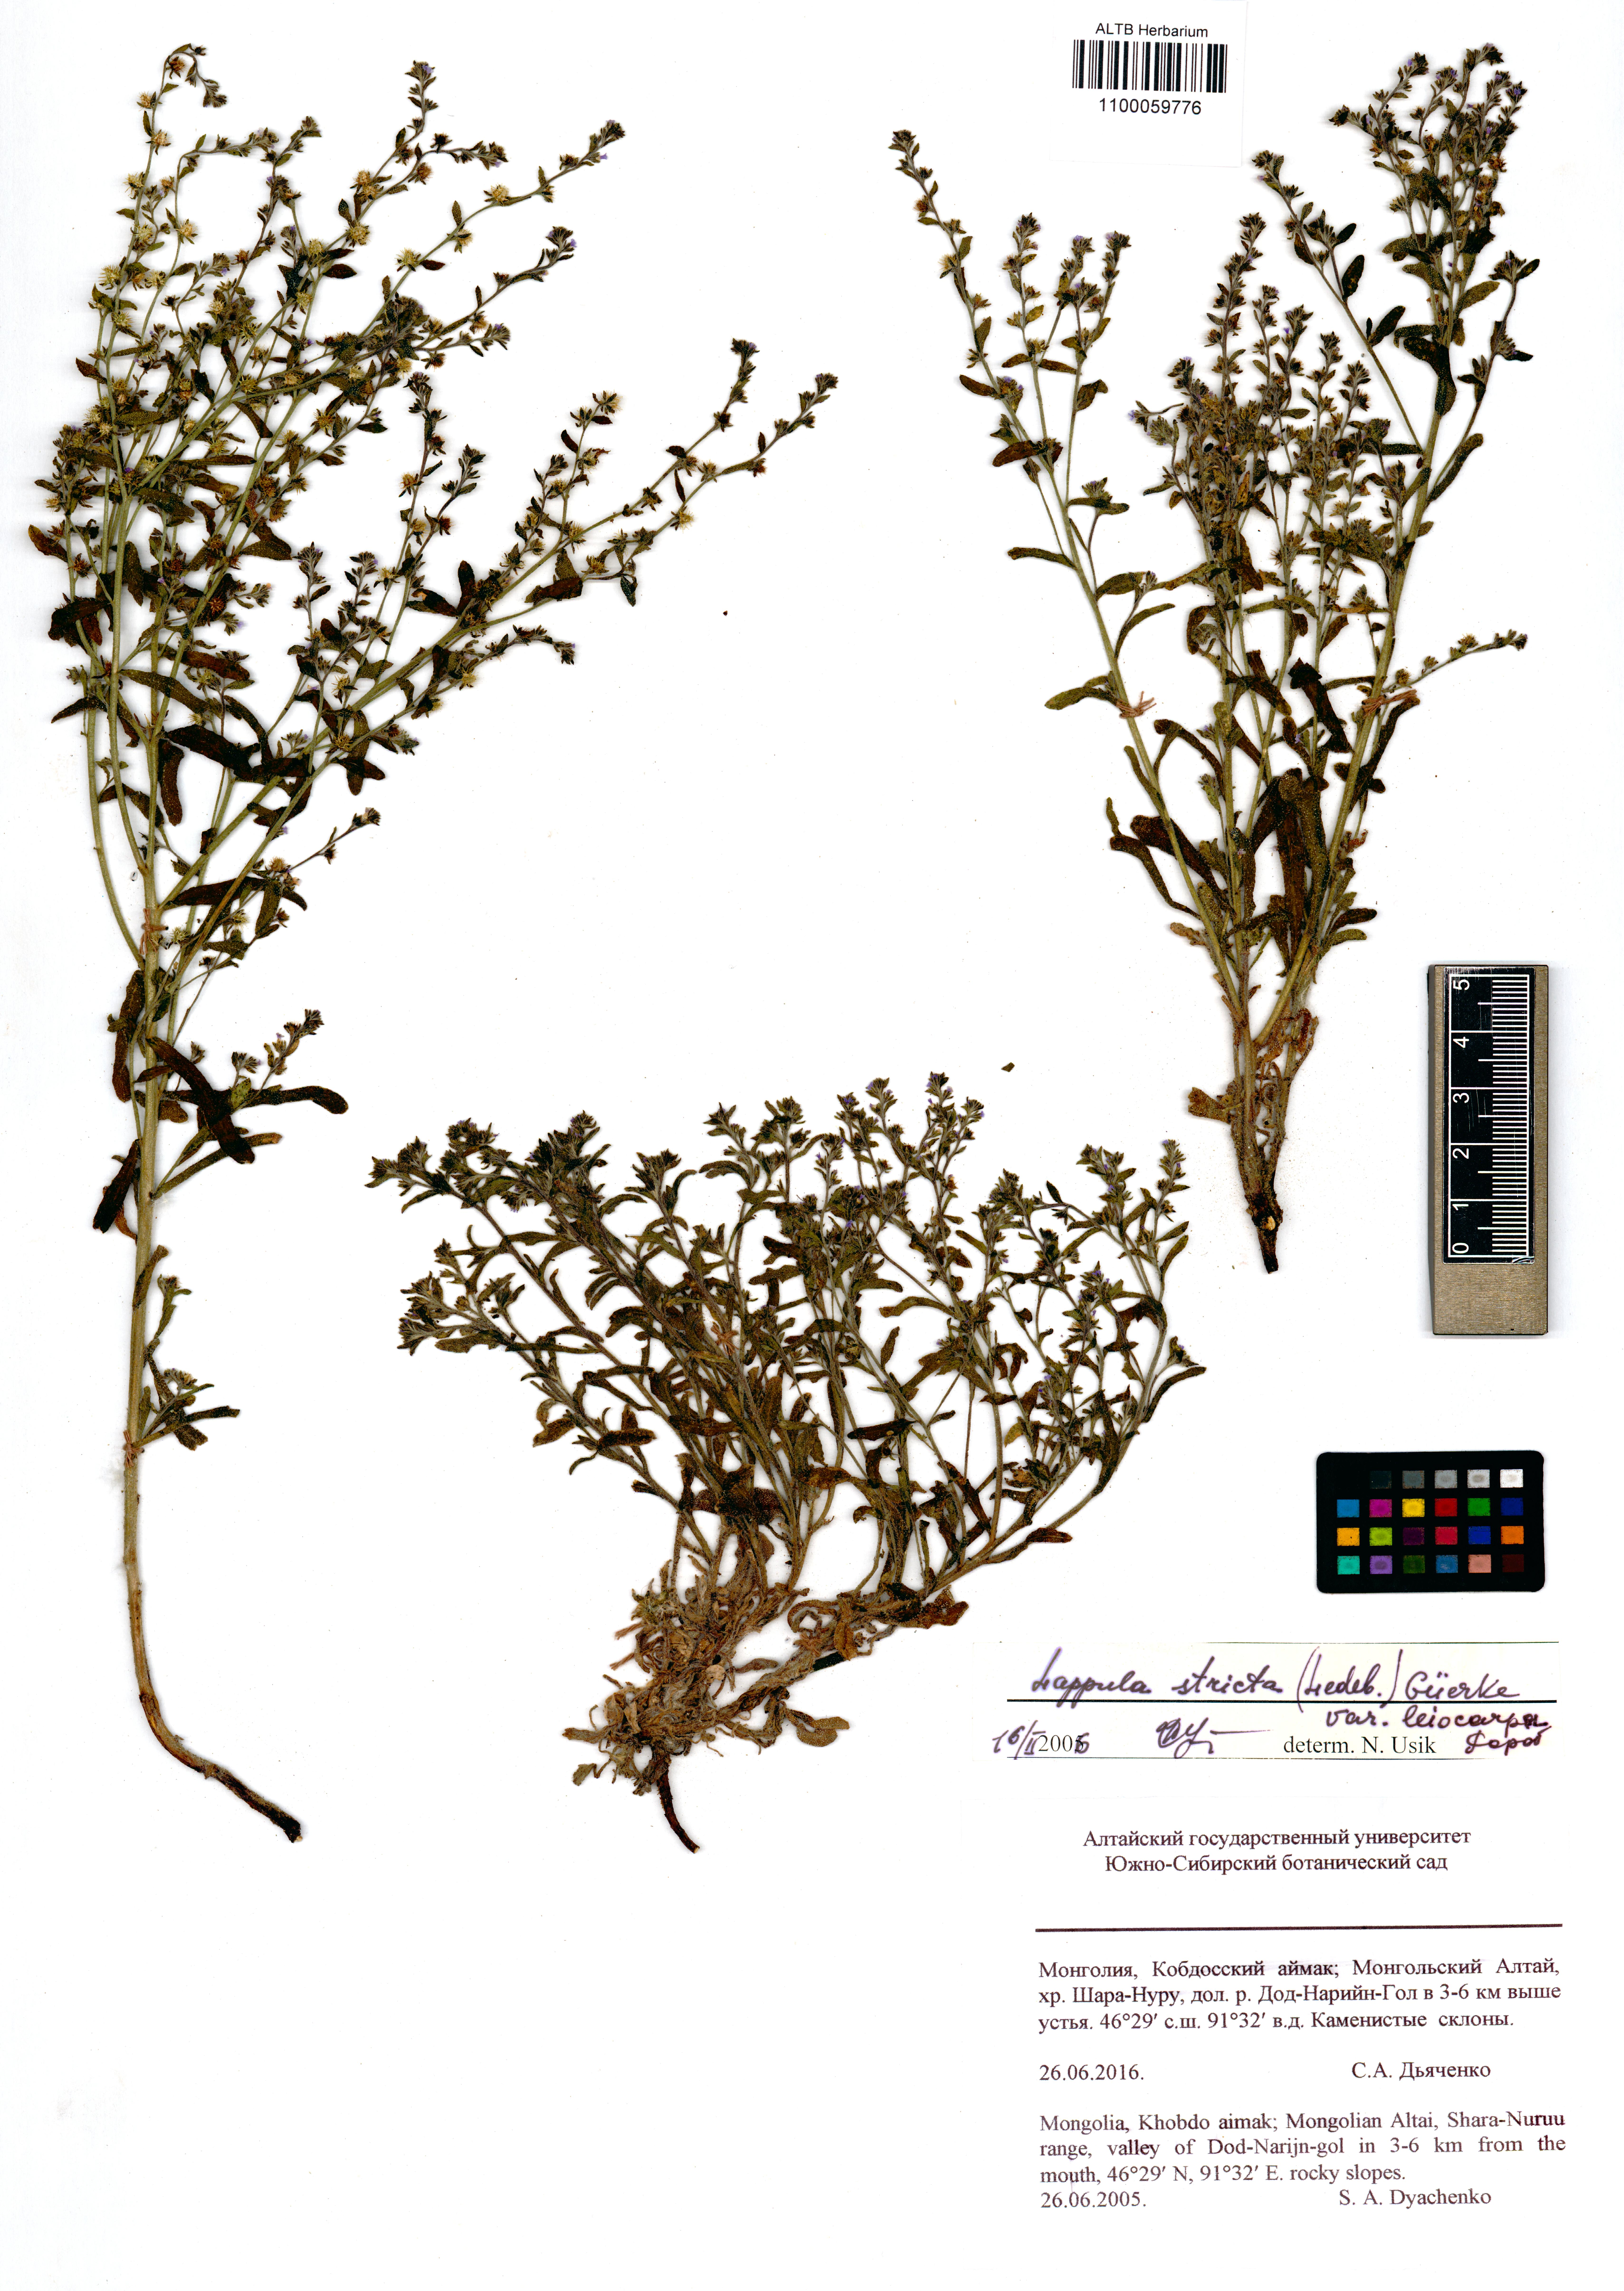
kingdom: Plantae
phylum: Tracheophyta
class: Magnoliopsida
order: Boraginales
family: Boraginaceae
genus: Lappula
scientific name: Lappula stricta
